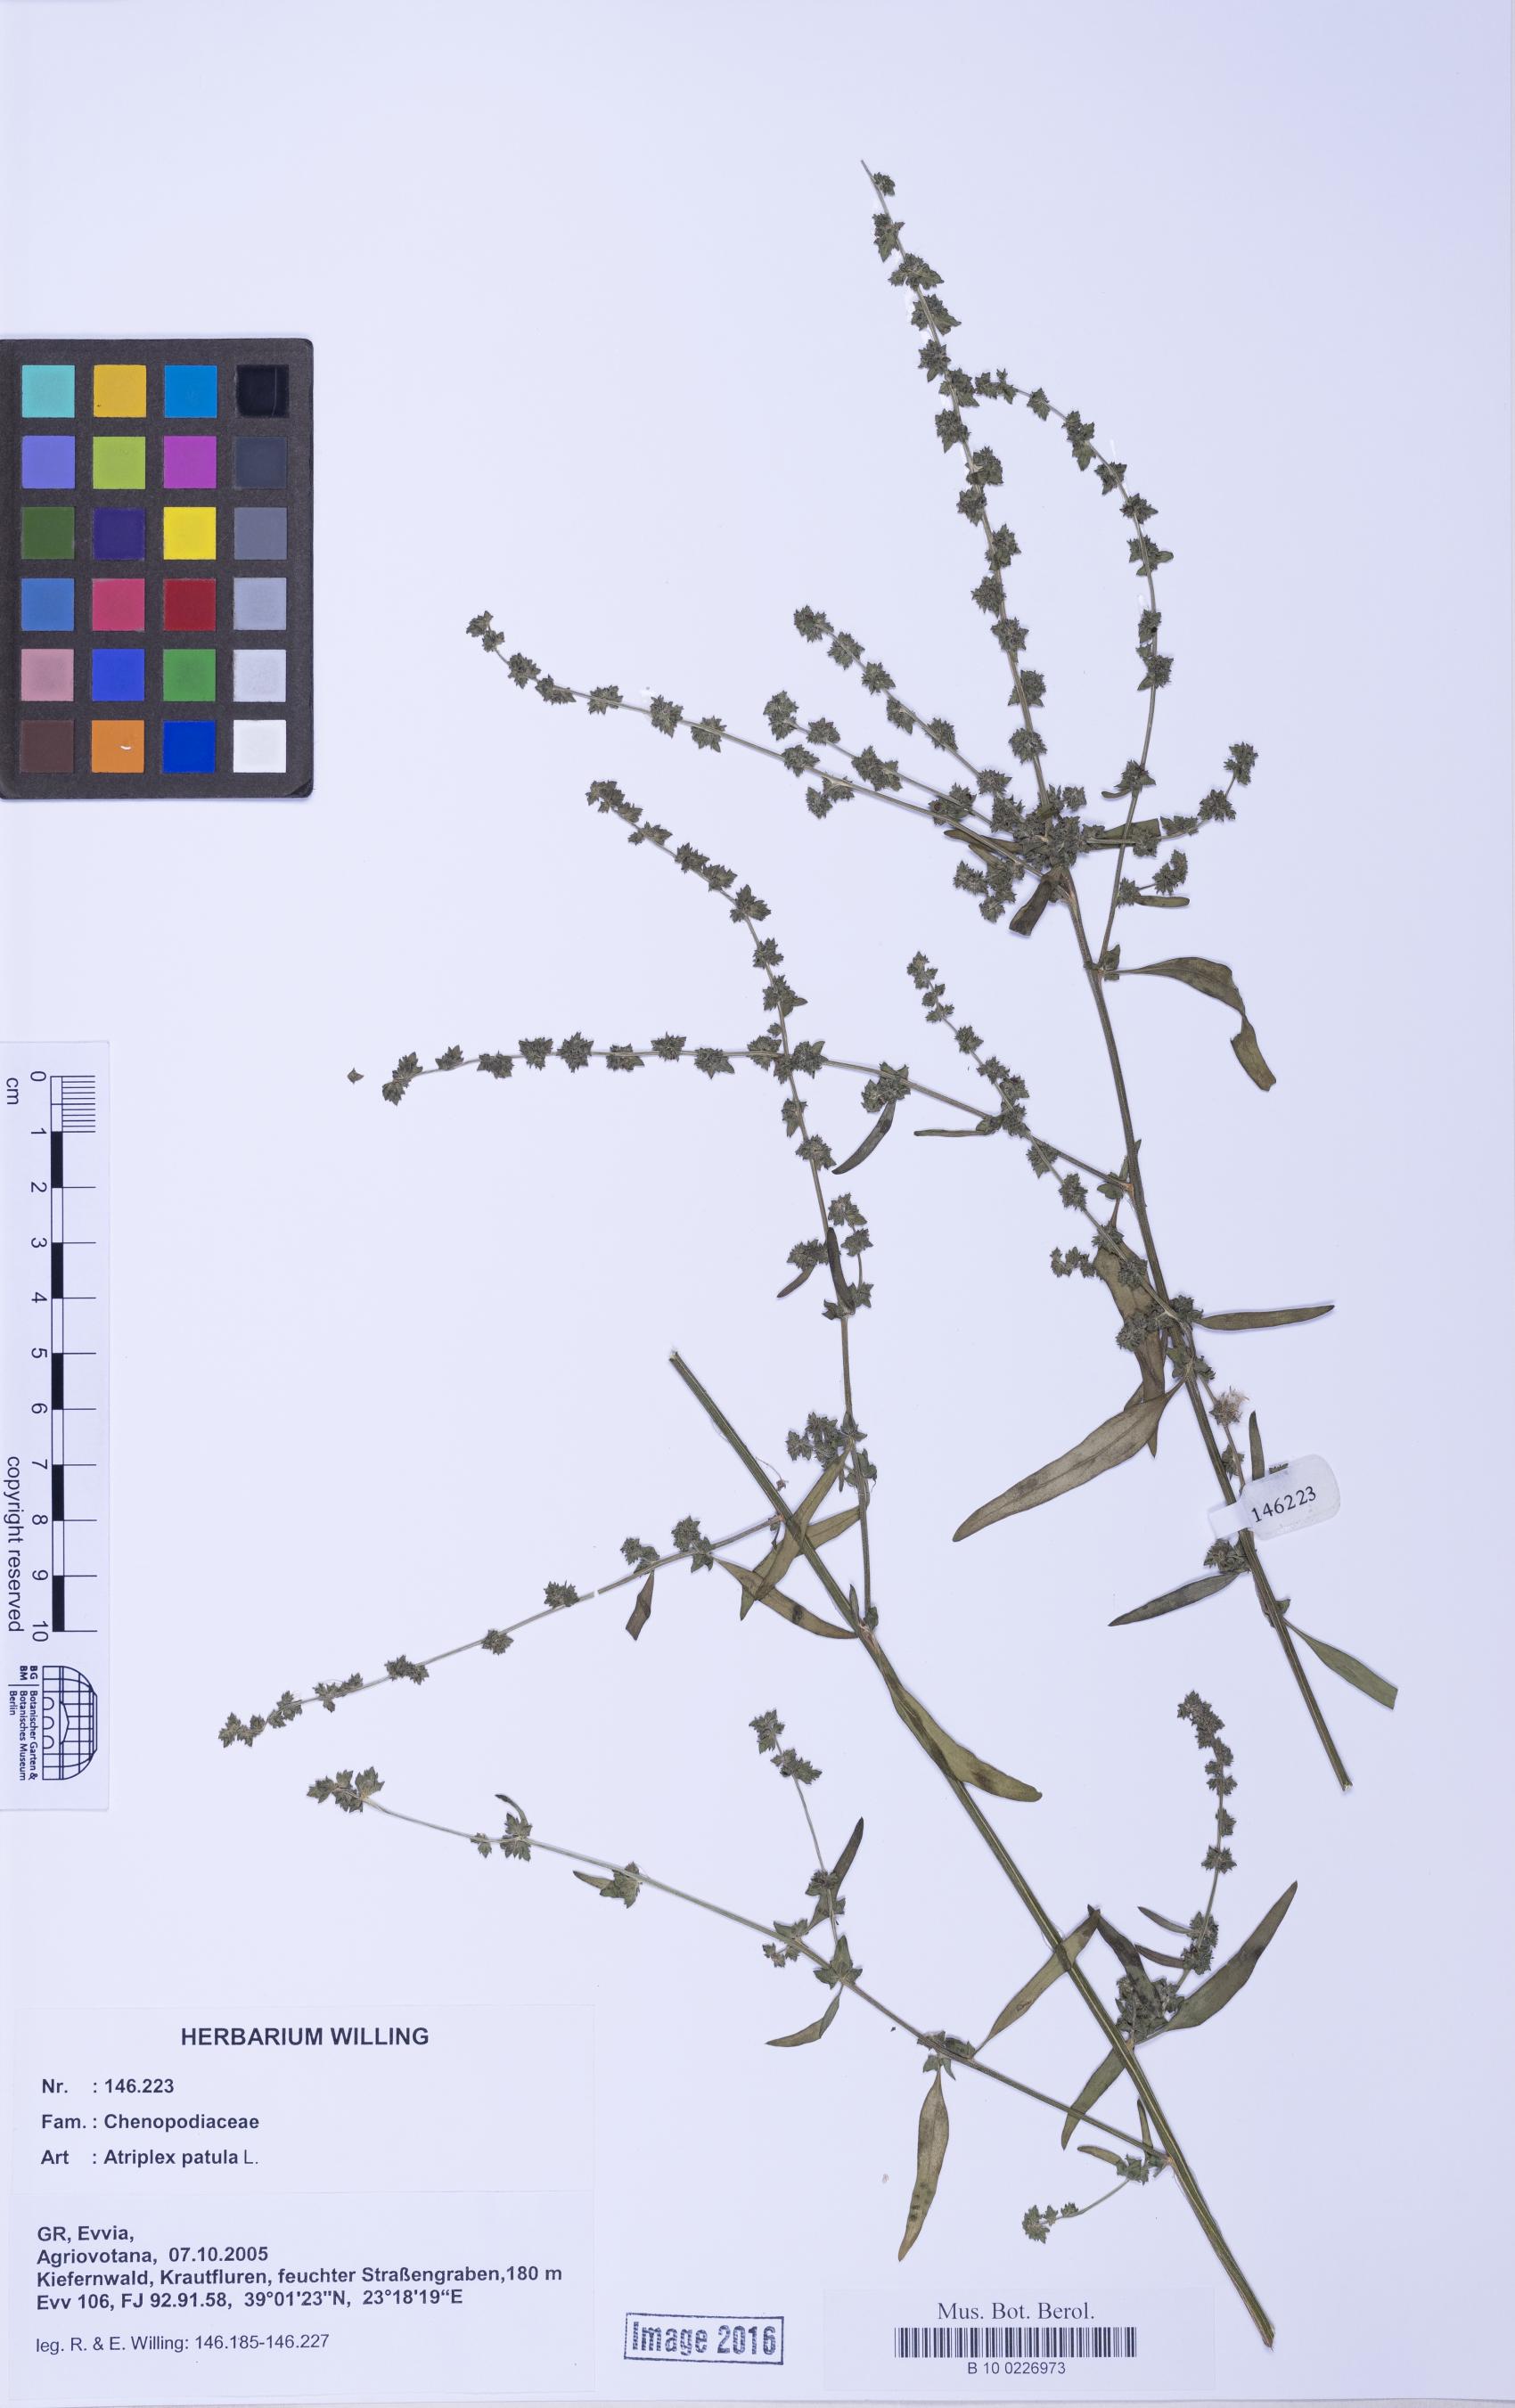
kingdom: Plantae
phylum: Tracheophyta
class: Magnoliopsida
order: Caryophyllales
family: Amaranthaceae
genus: Atriplex
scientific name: Atriplex patula
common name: Common orache
